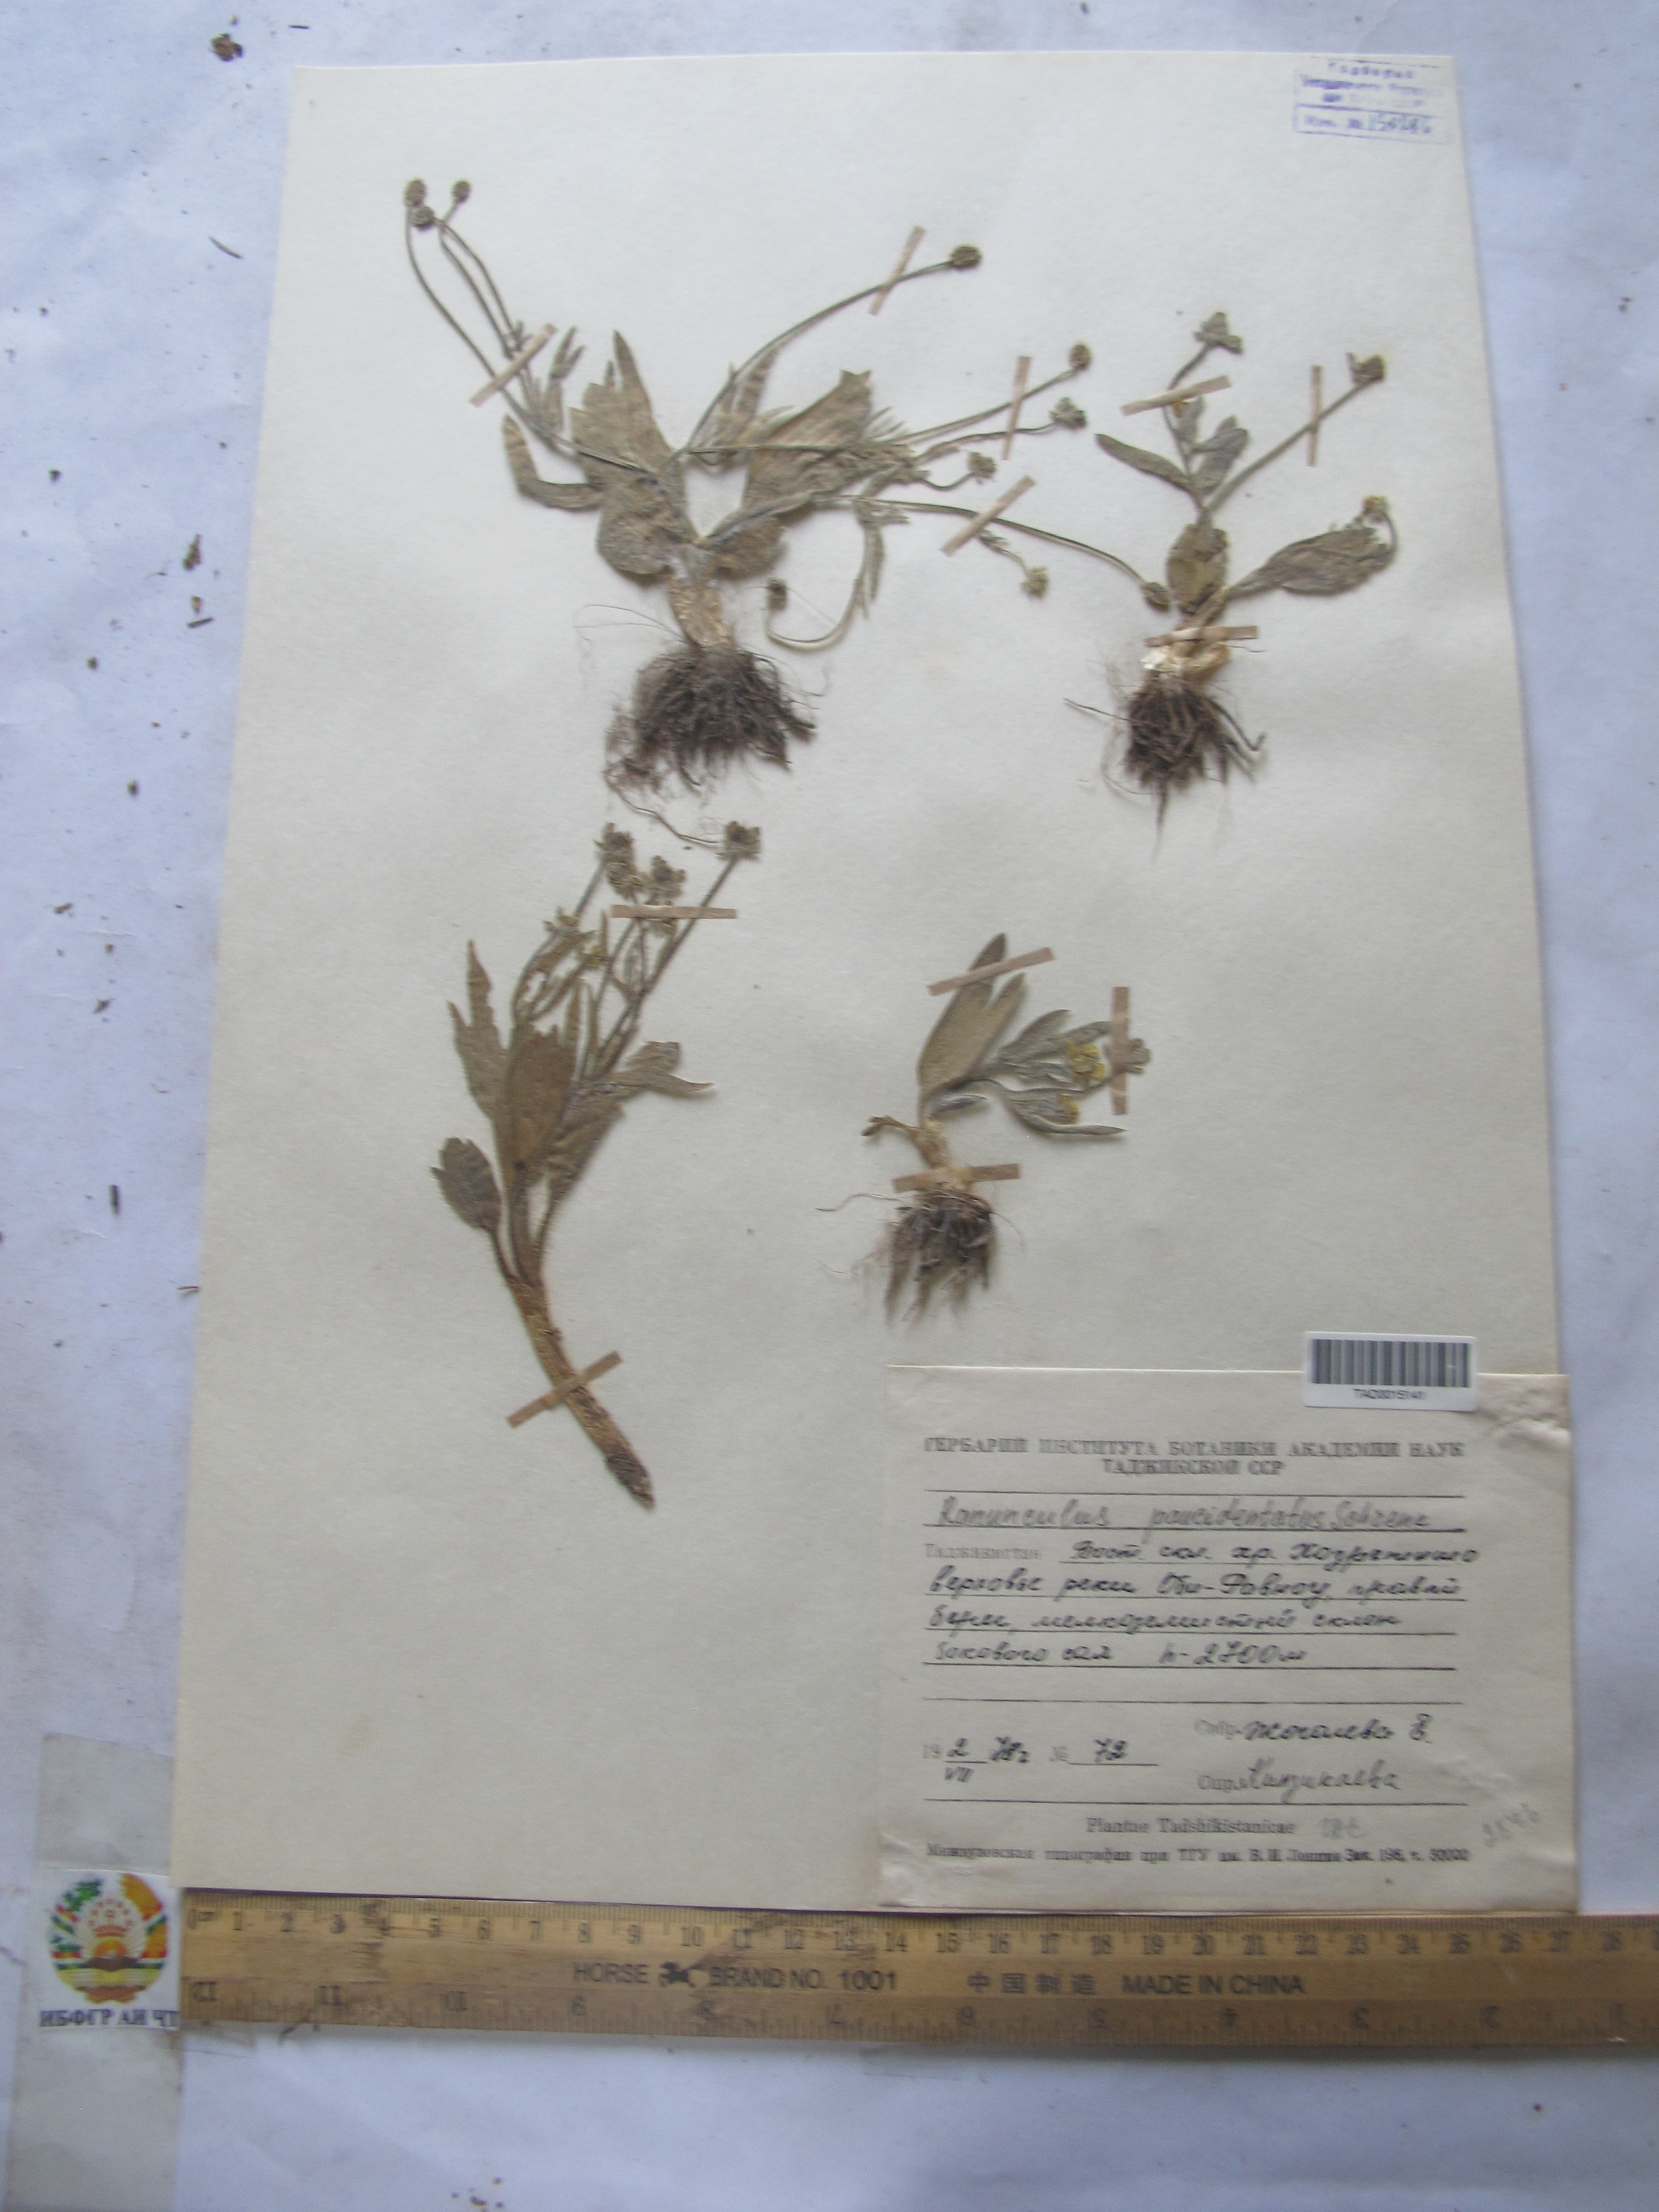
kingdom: Plantae
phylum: Tracheophyta
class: Magnoliopsida
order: Ranunculales
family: Ranunculaceae
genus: Ranunculus
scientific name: Ranunculus paucidentatus
